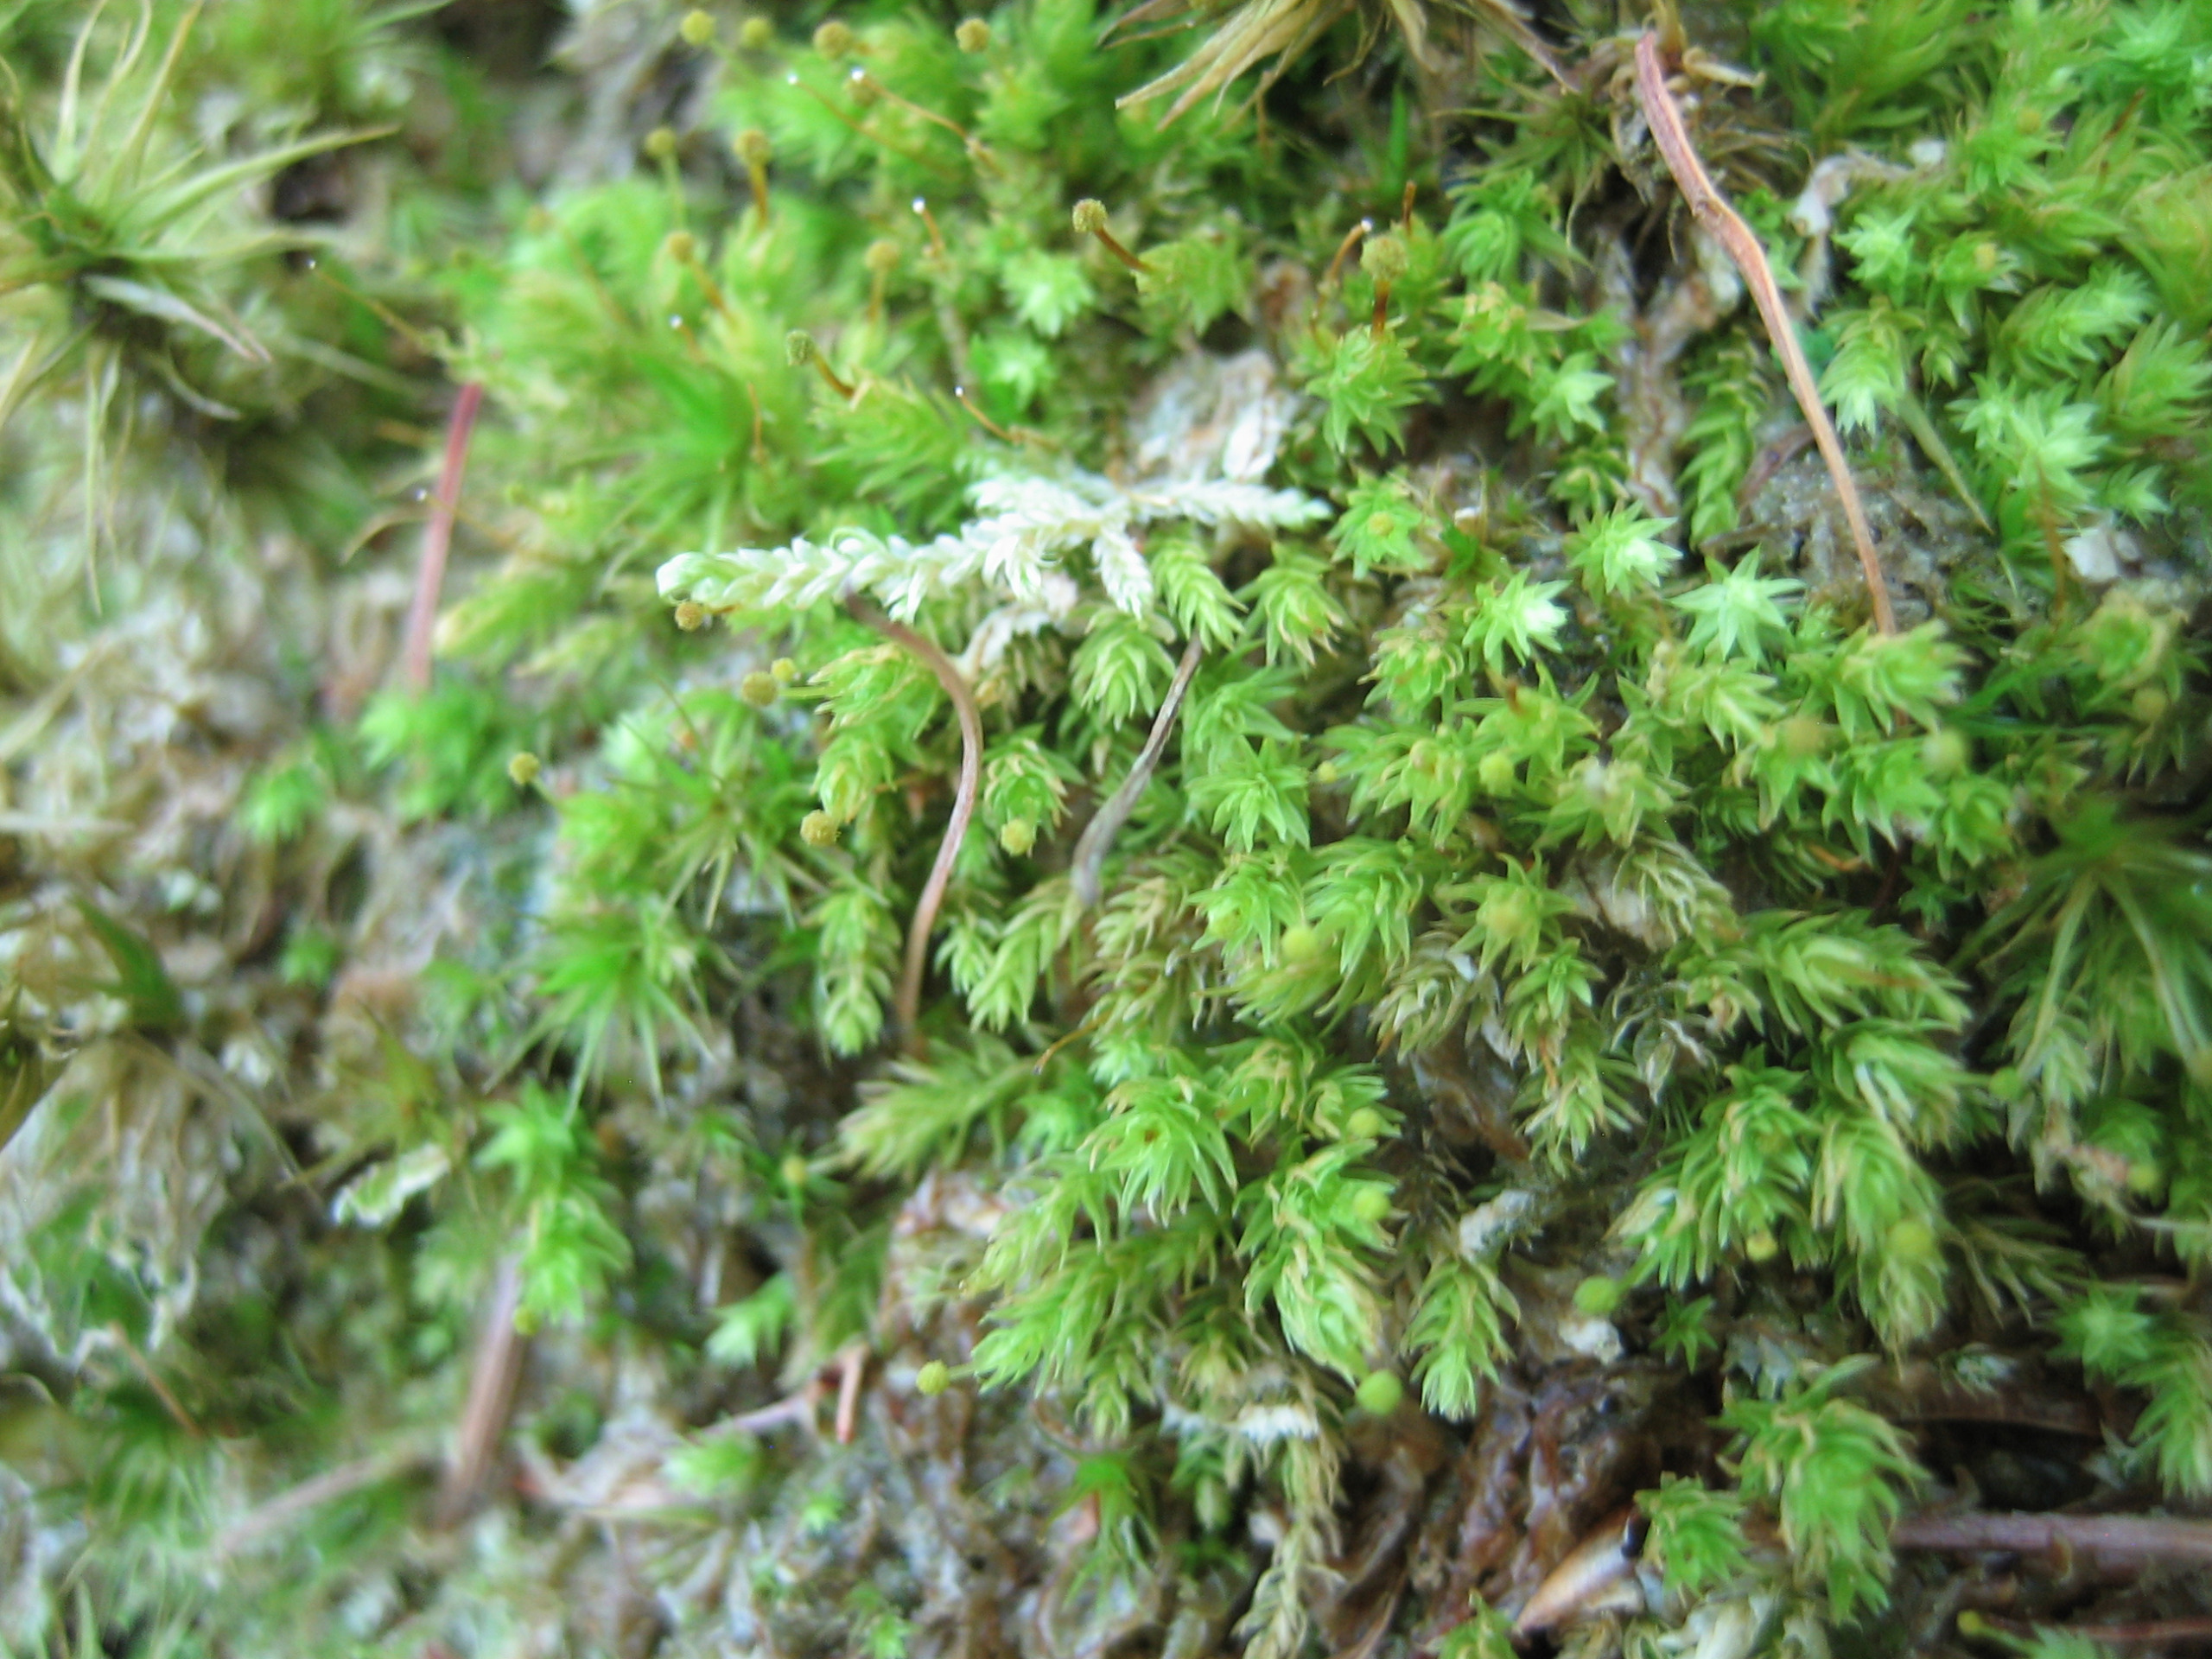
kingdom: Plantae
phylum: Bryophyta
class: Bryopsida
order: Aulacomniales
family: Aulacomniaceae
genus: Aulacomnium
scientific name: Aulacomnium androgynum
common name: Kugle-filtmos
